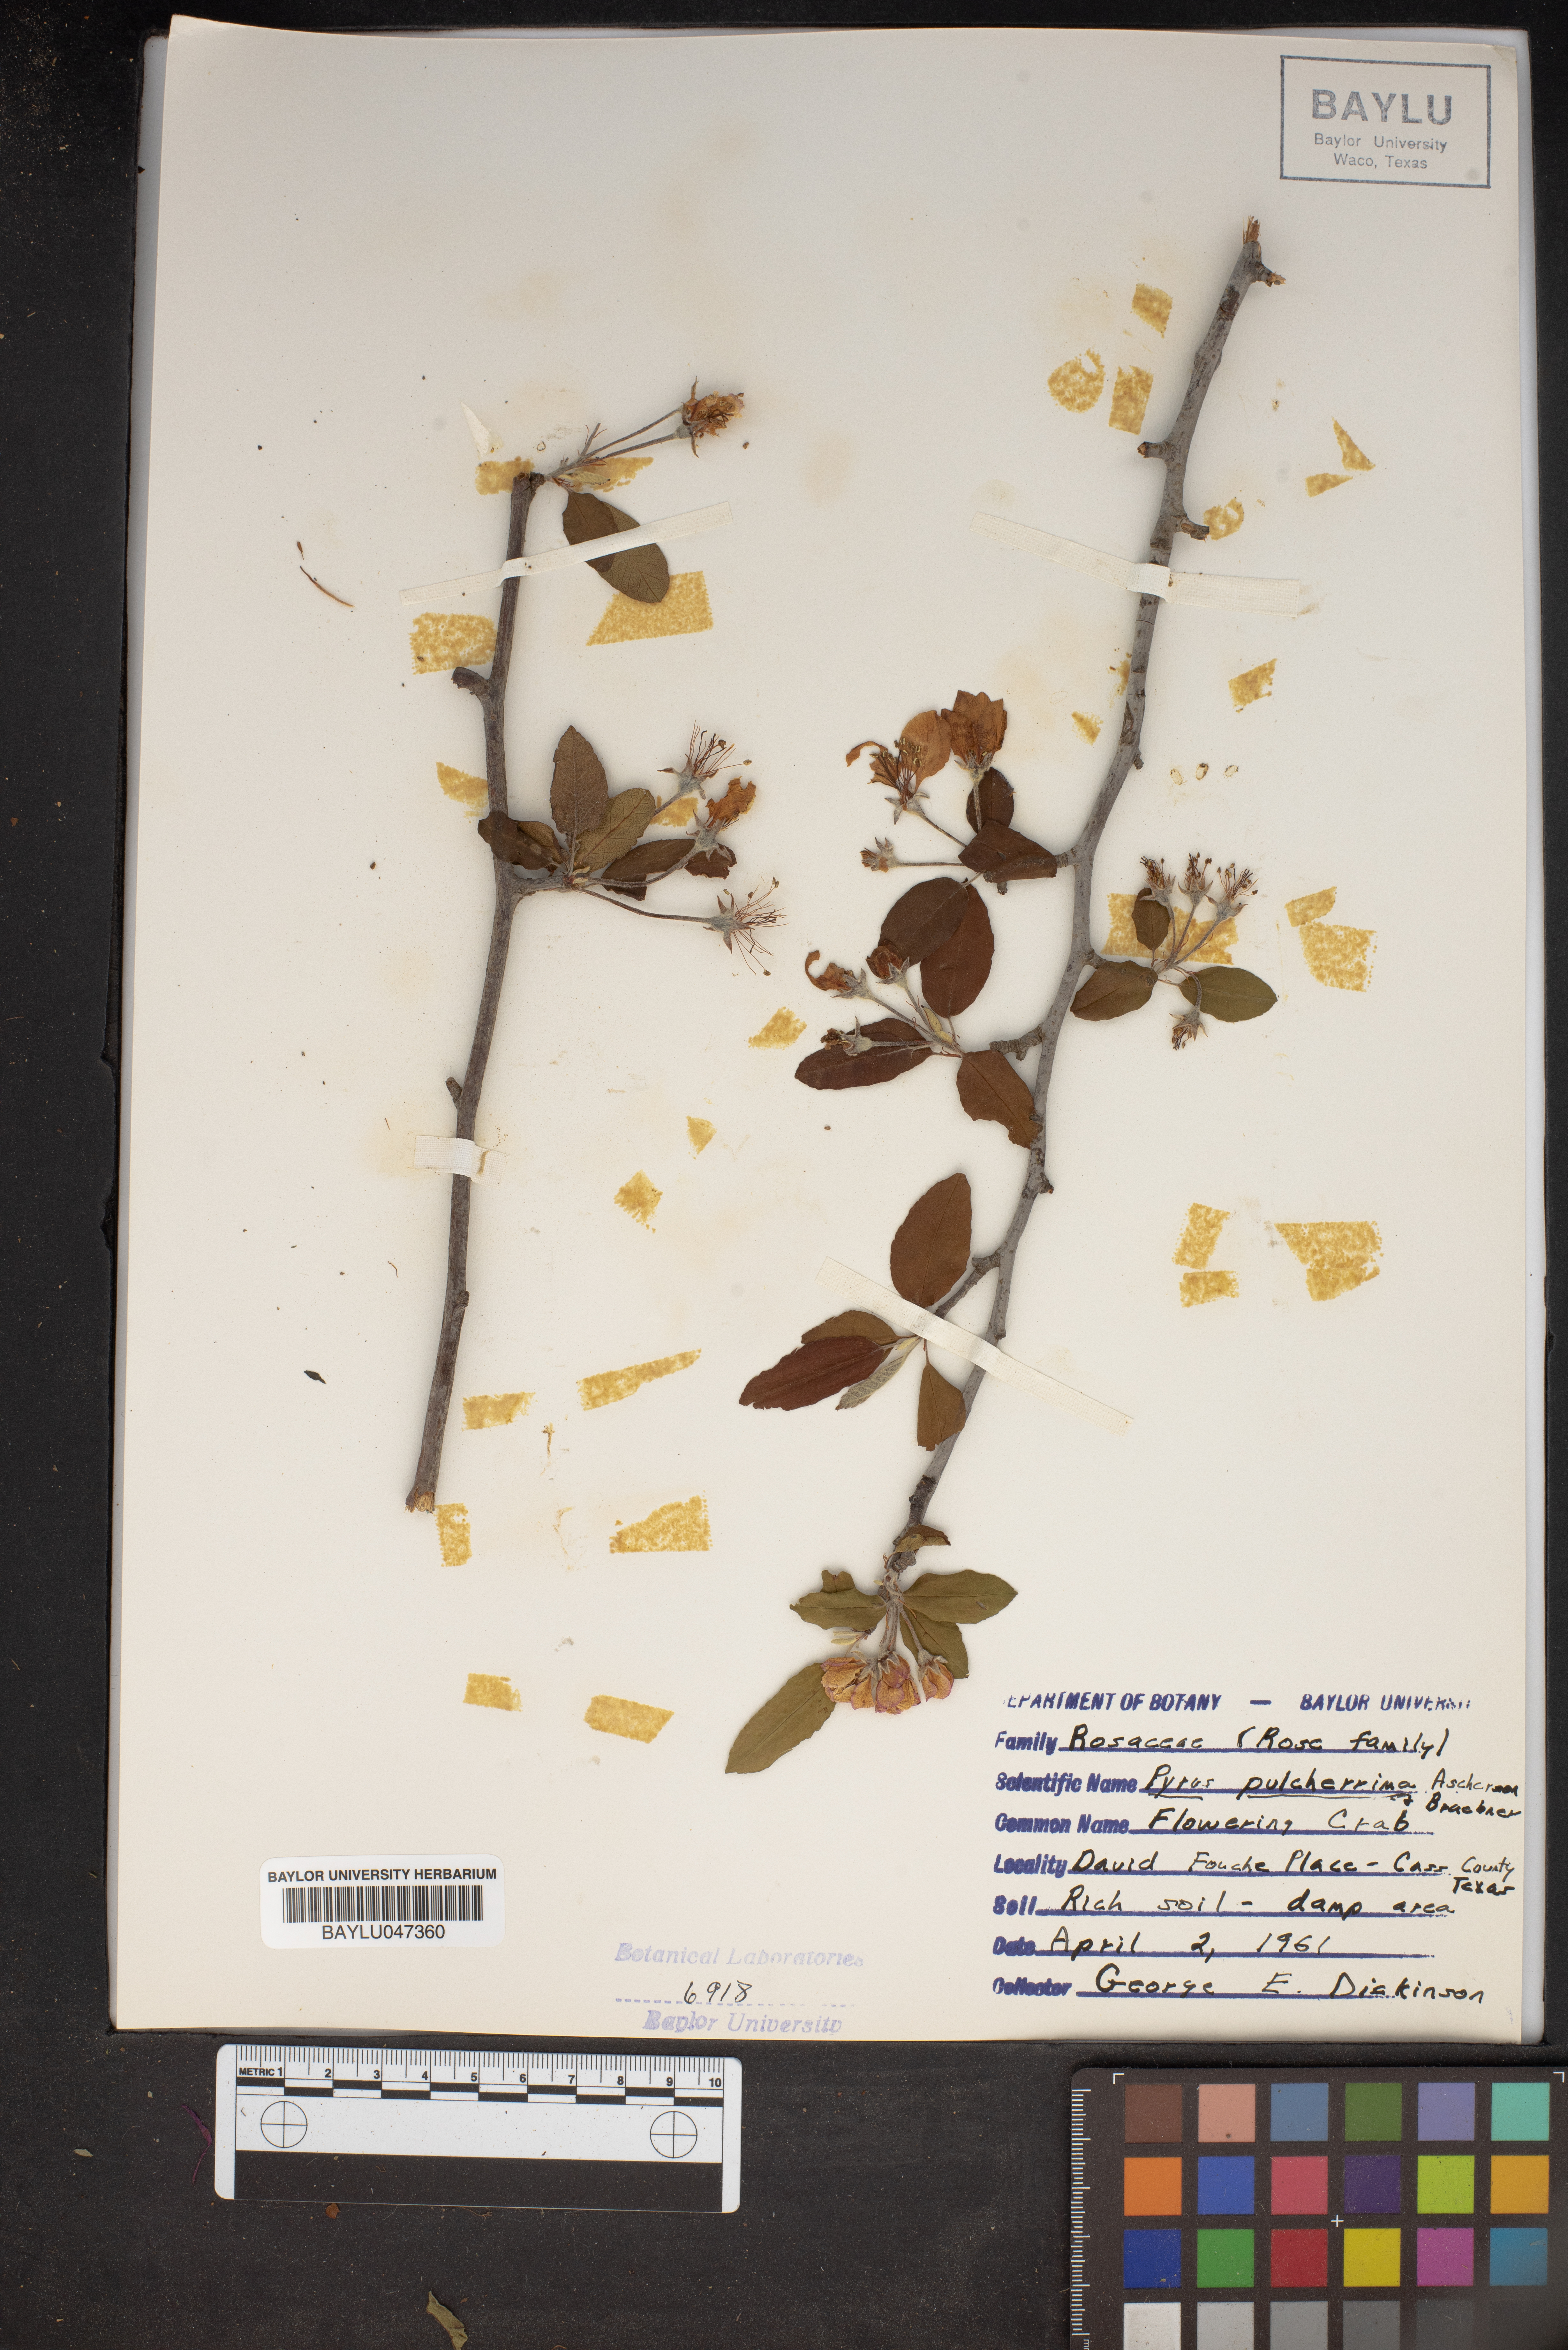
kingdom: Plantae
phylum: Tracheophyta
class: Magnoliopsida
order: Rosales
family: Rosaceae
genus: Pyrus
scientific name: Pyrus pulcherrima
